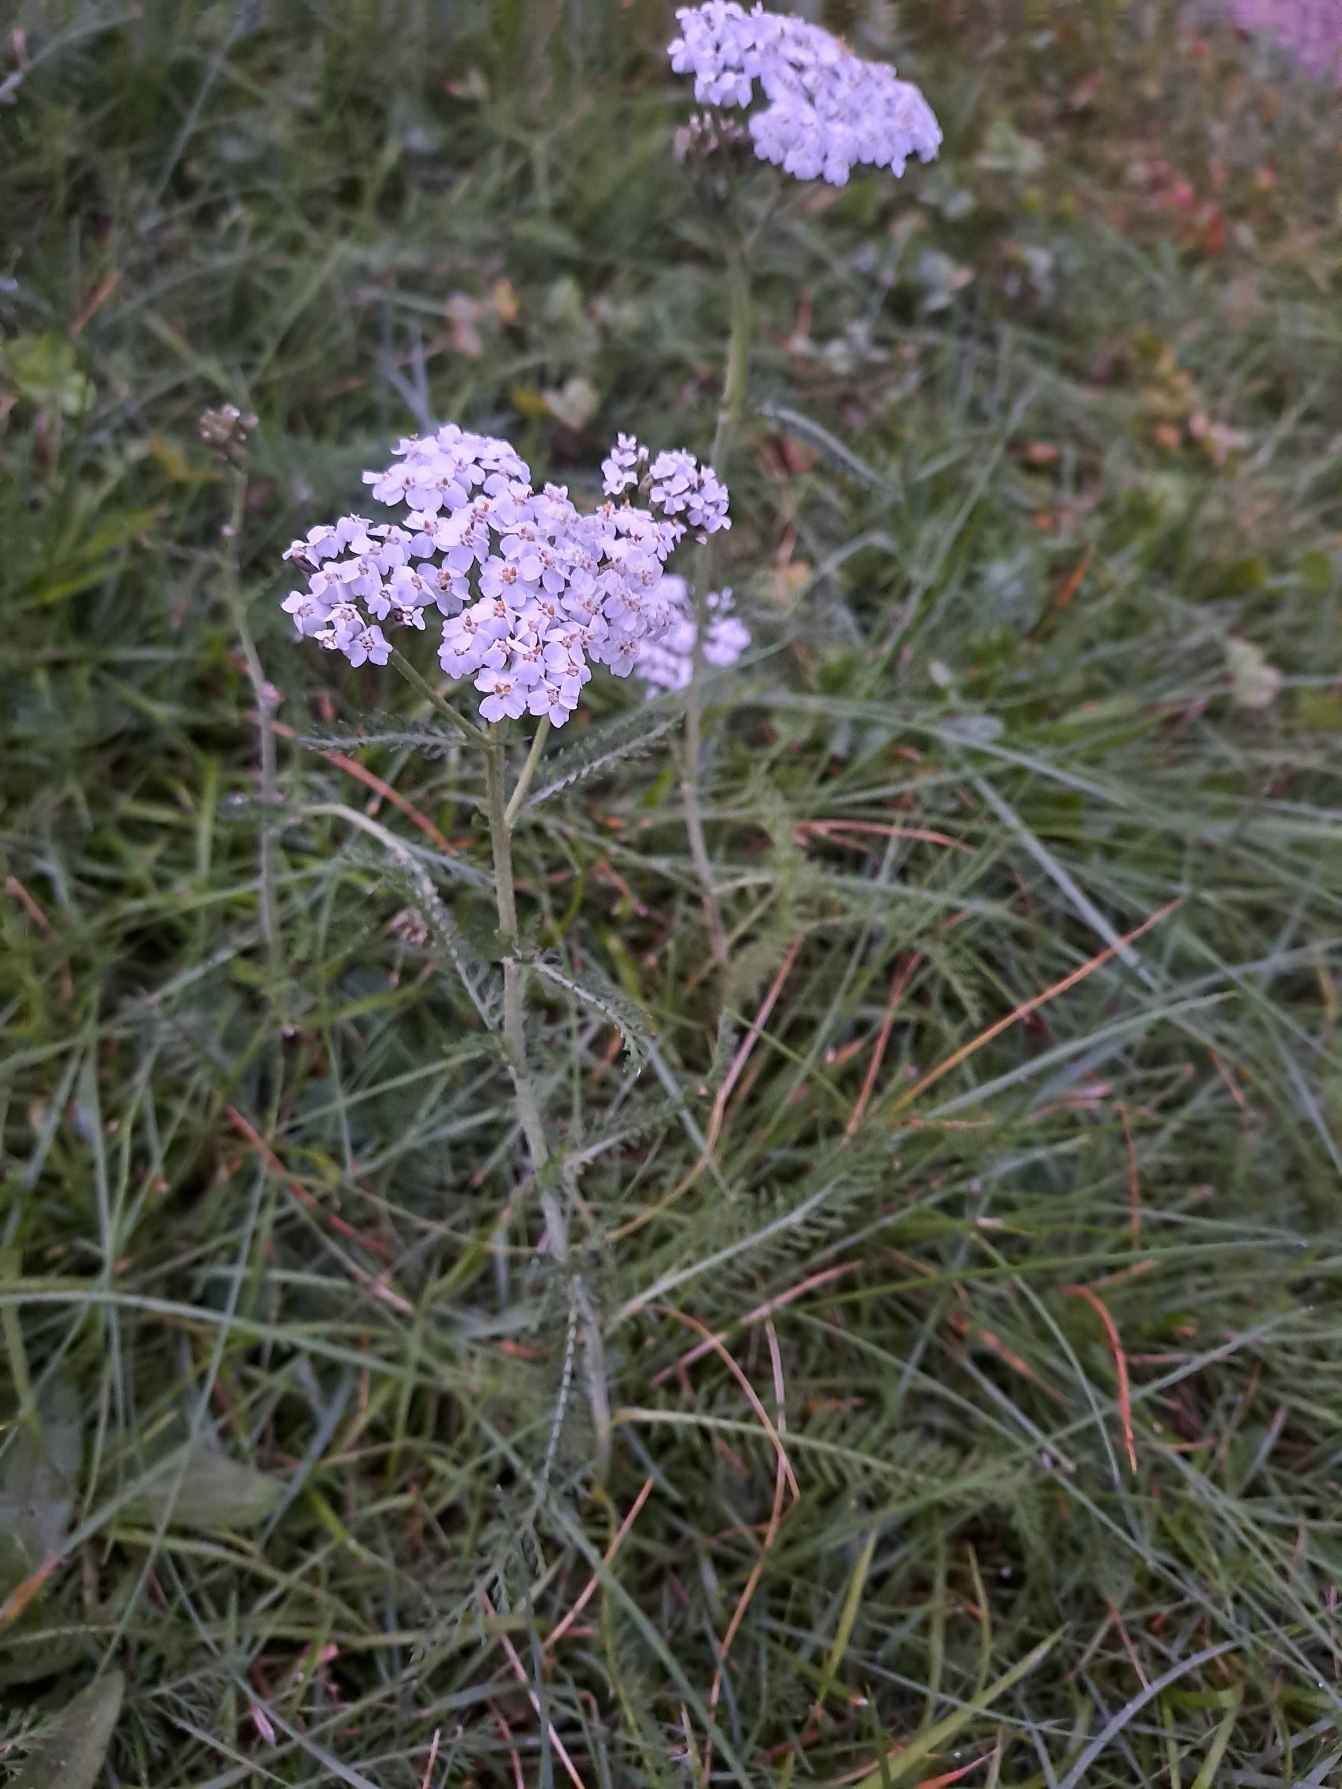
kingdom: Plantae
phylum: Tracheophyta
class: Magnoliopsida
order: Asterales
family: Asteraceae
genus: Achillea
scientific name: Achillea millefolium
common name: Almindelig røllike
